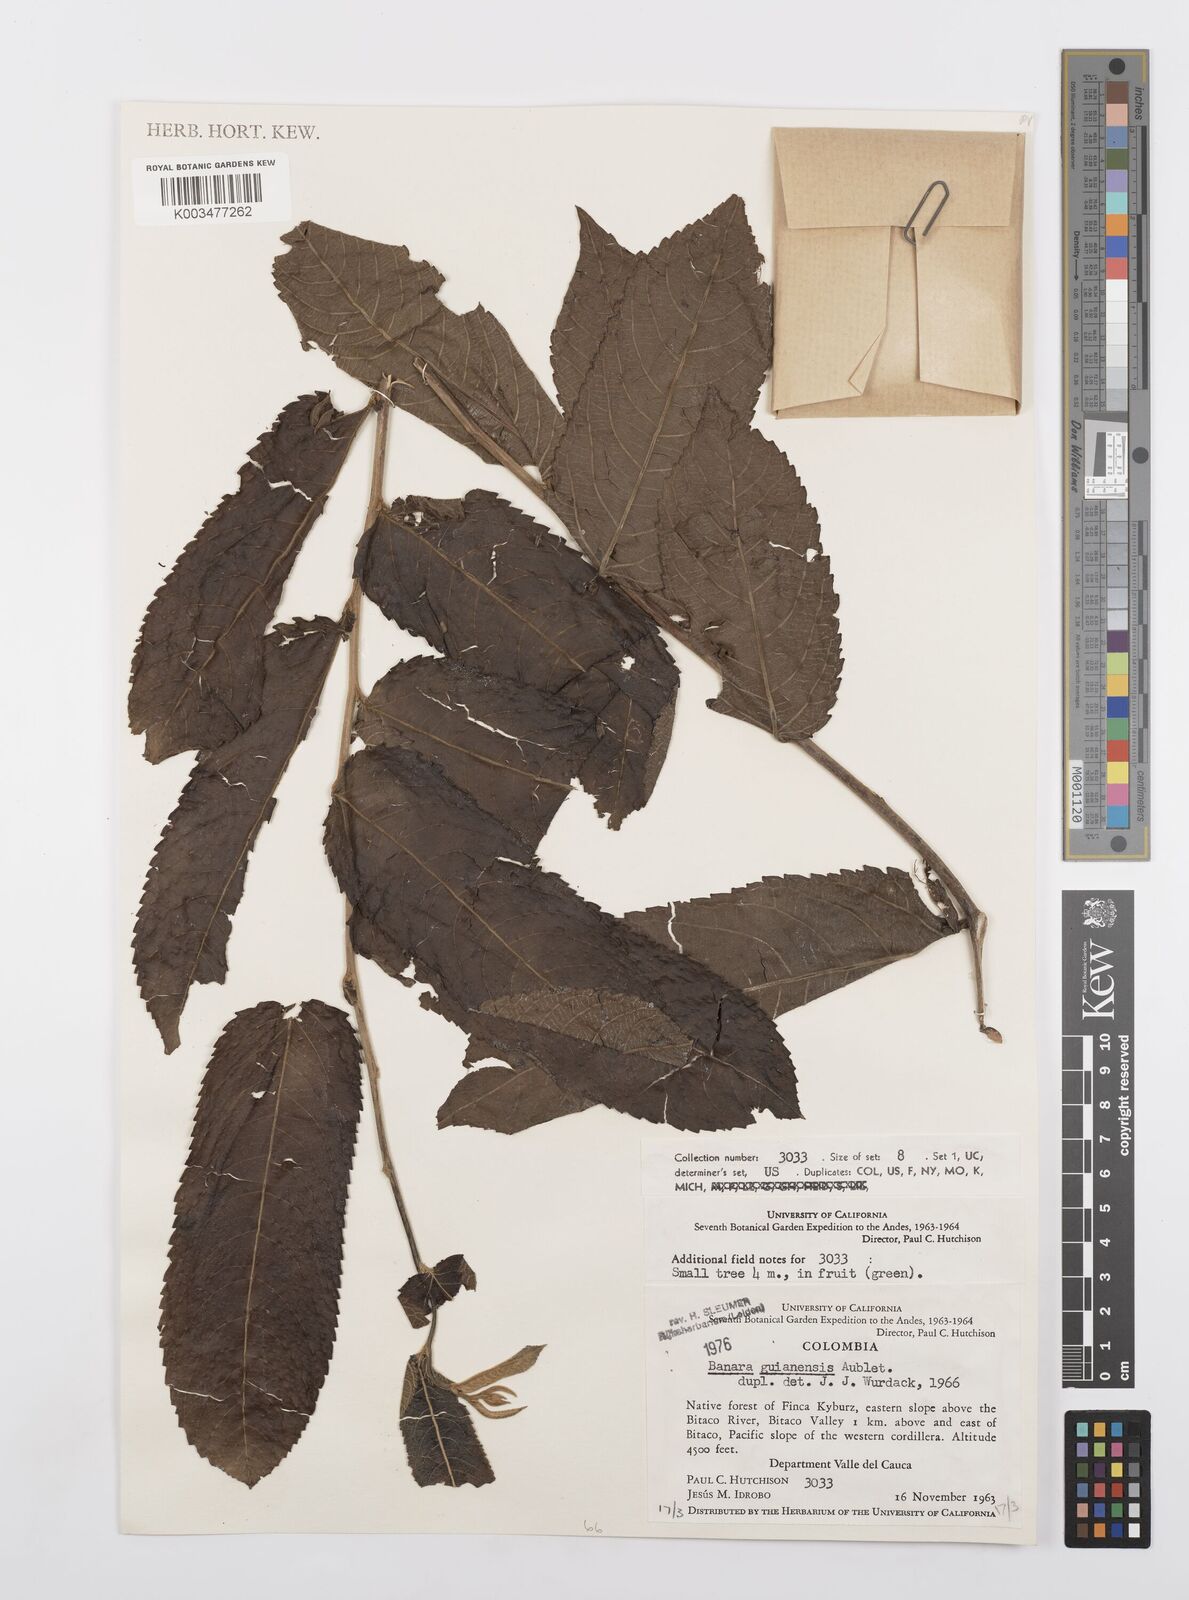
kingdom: Plantae
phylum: Tracheophyta
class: Magnoliopsida
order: Malpighiales
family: Salicaceae
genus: Banara
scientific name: Banara guianensis
